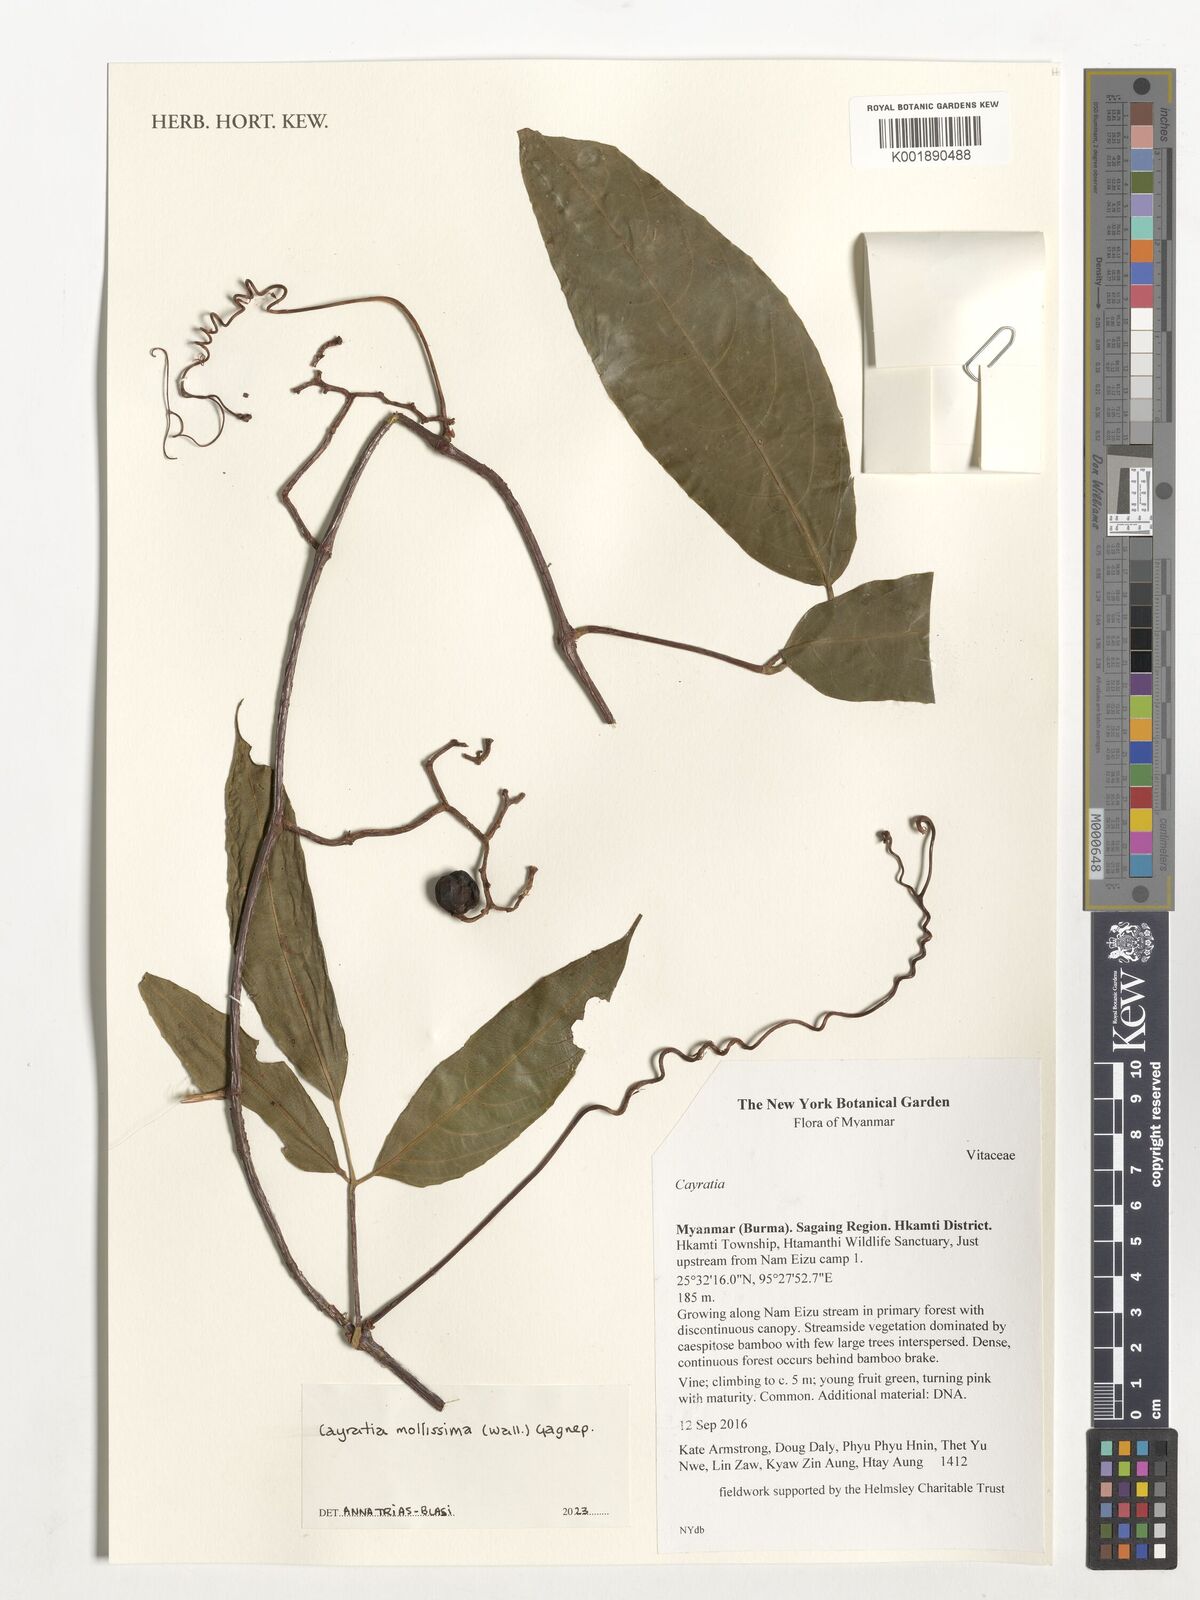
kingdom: Plantae
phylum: Tracheophyta
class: Magnoliopsida
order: Vitales
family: Vitaceae
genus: Cayratia
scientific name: Cayratia
